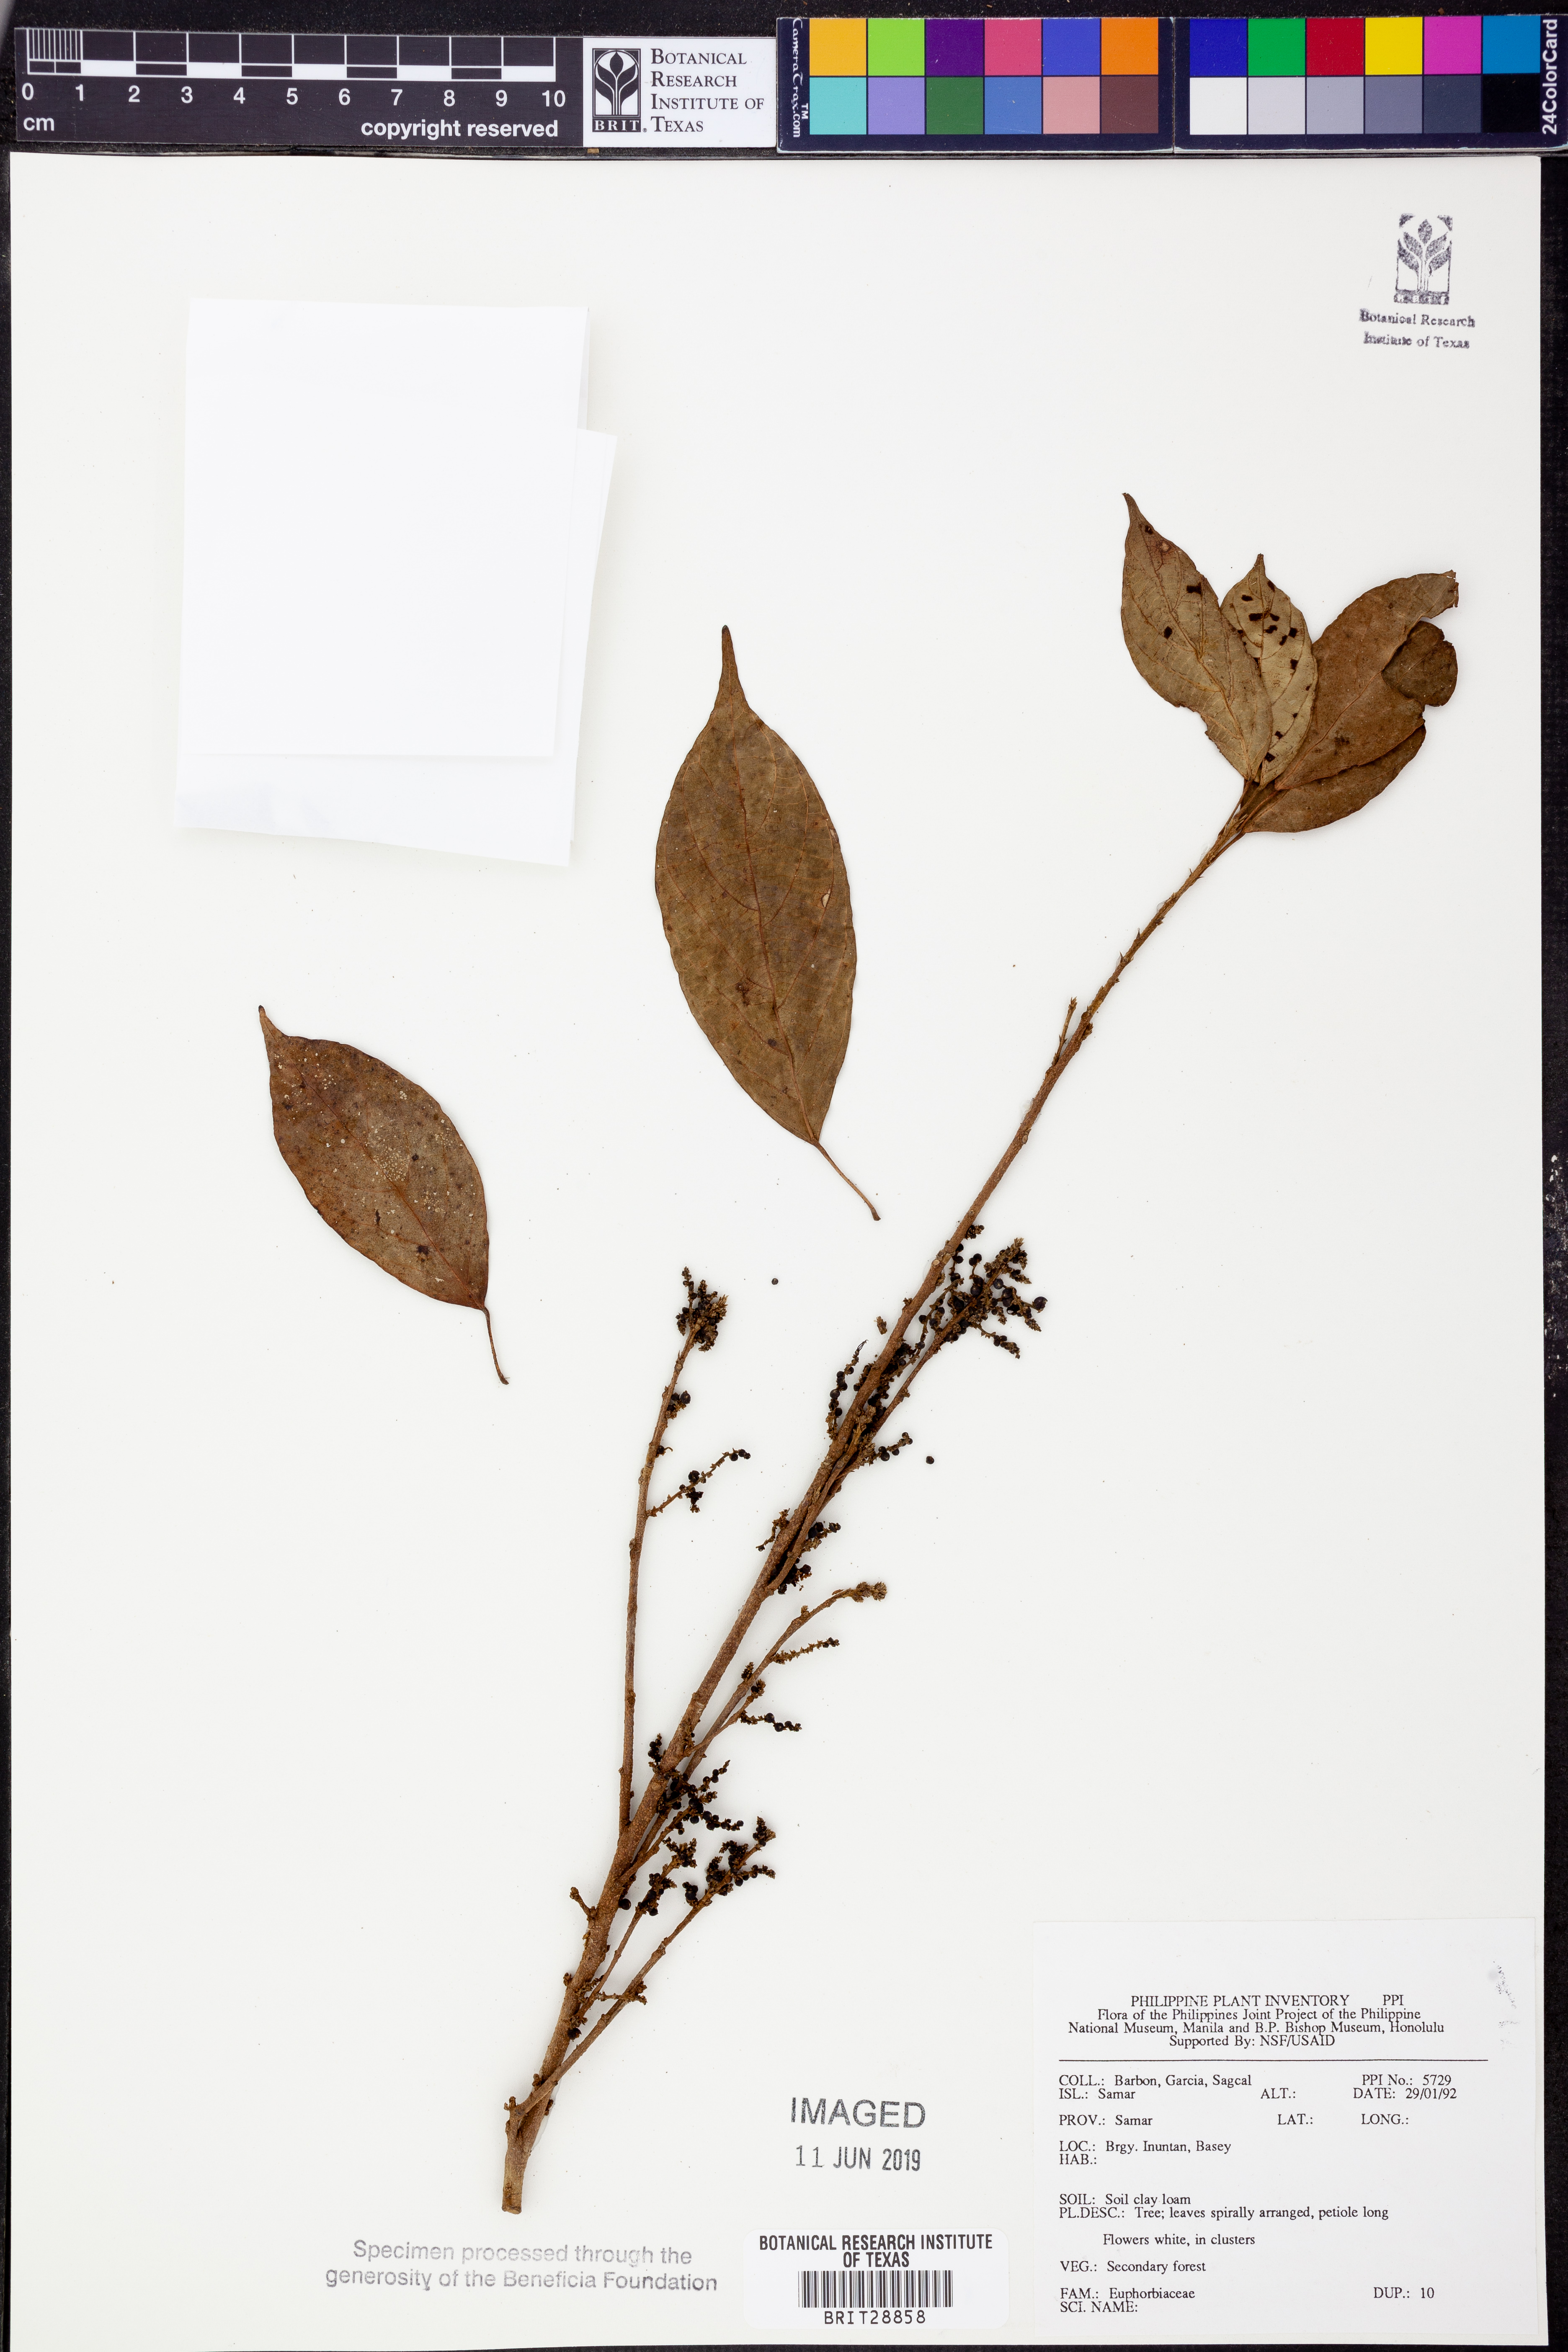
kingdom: Plantae
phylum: Tracheophyta
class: Magnoliopsida
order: Malpighiales
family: Euphorbiaceae
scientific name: Euphorbiaceae
